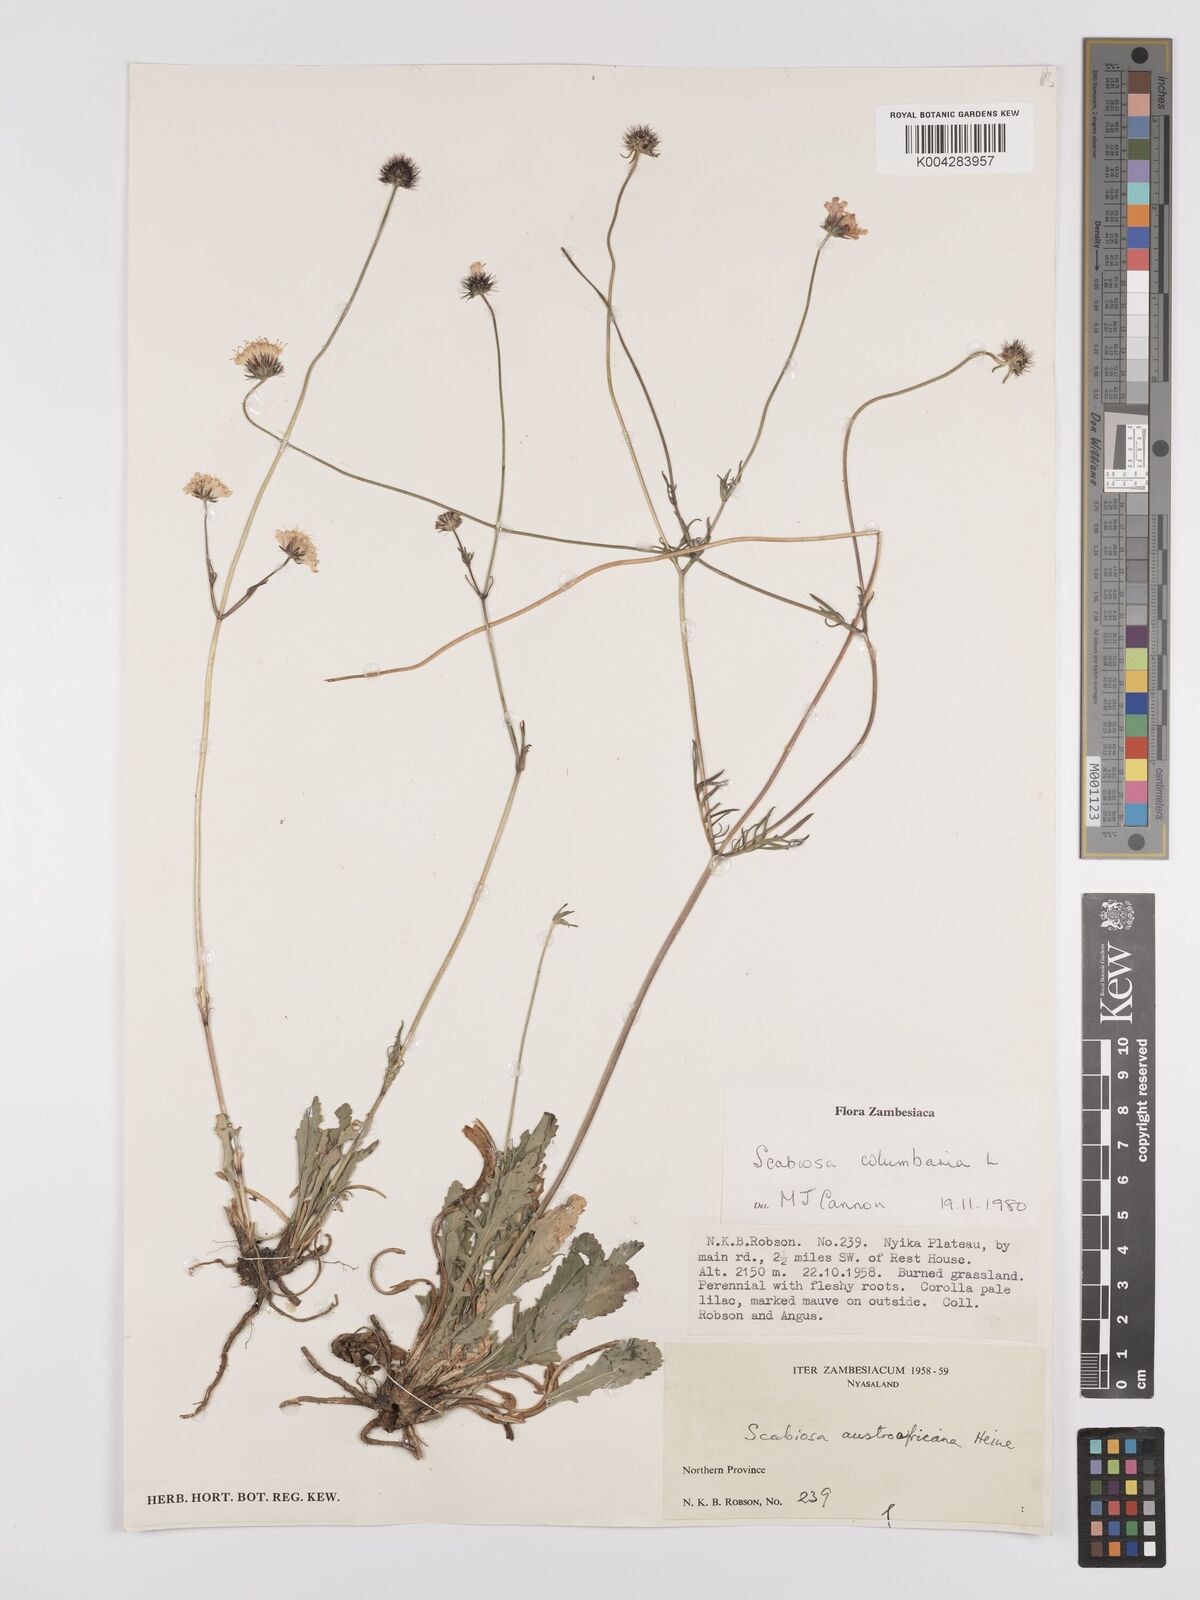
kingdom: Plantae
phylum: Tracheophyta
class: Magnoliopsida
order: Dipsacales
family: Caprifoliaceae
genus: Scabiosa
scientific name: Scabiosa austroafricana
